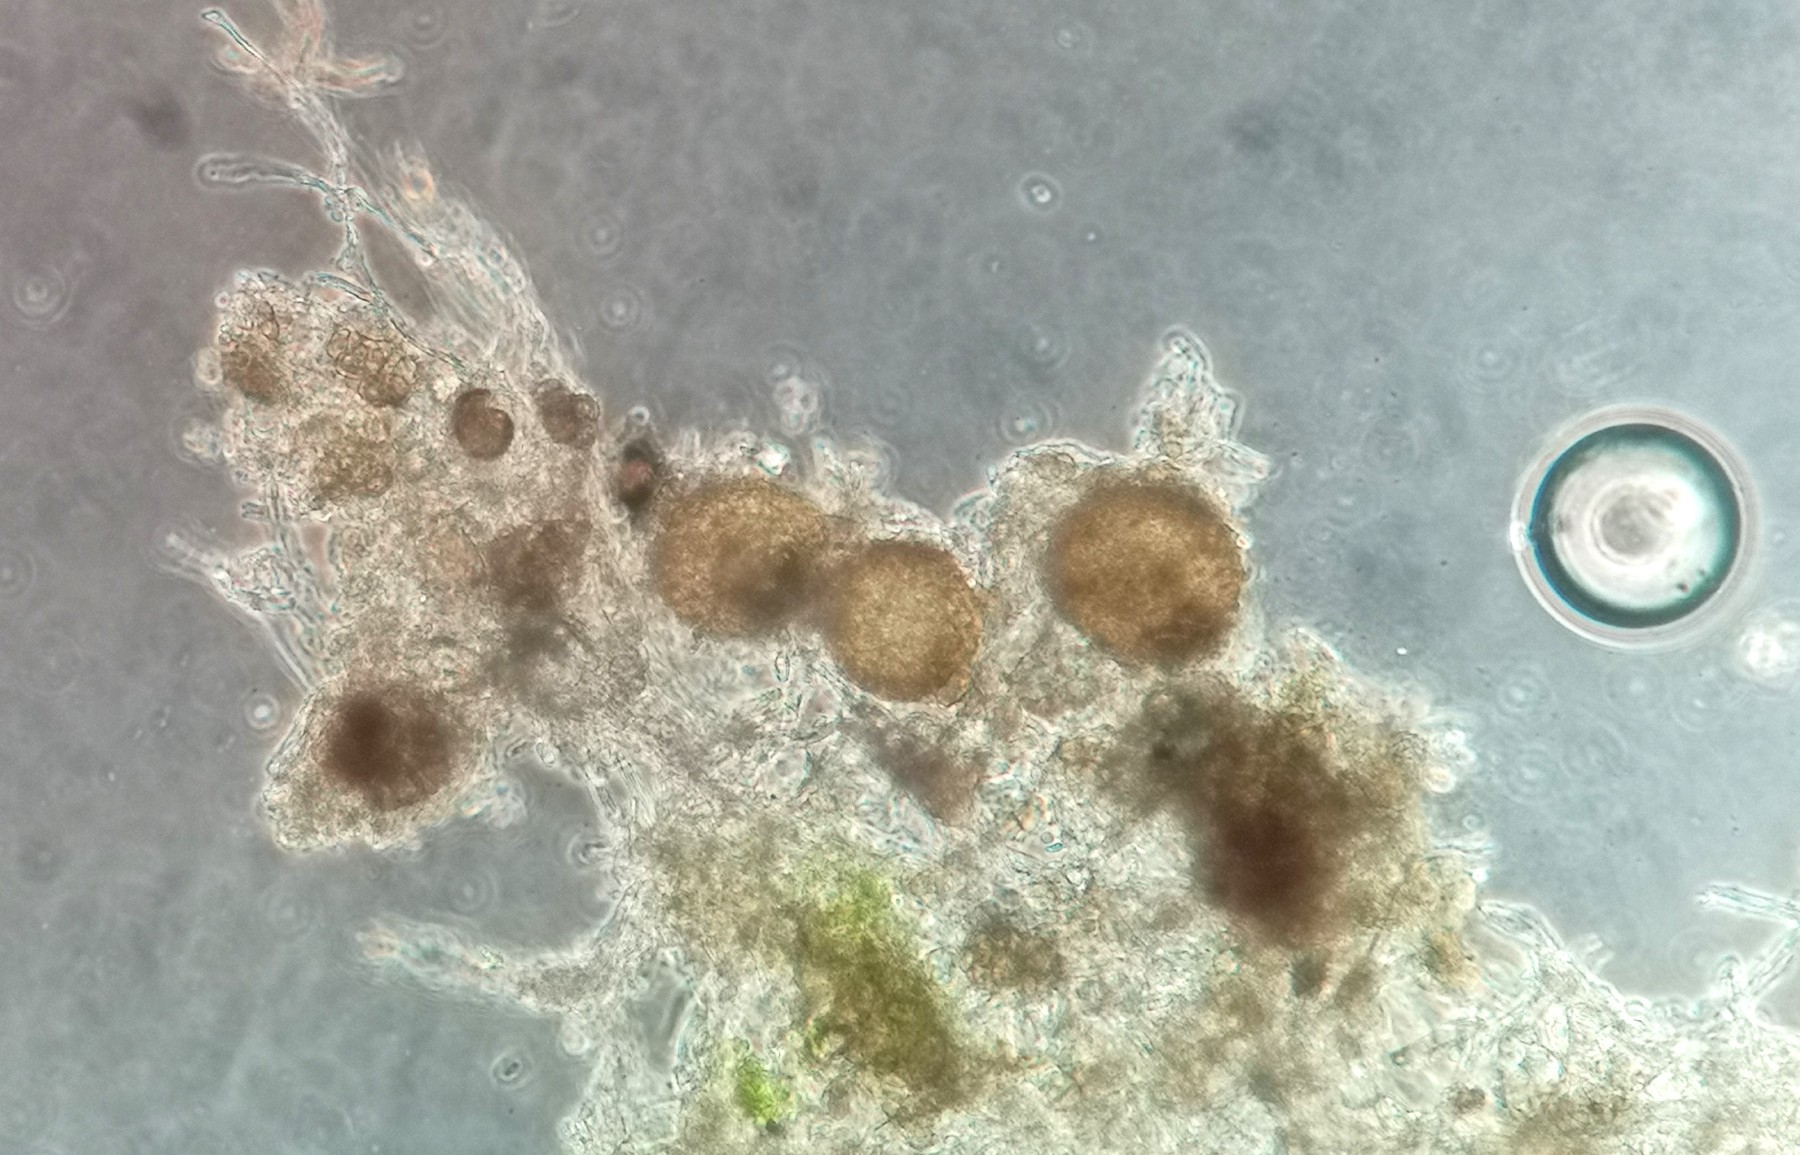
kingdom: Fungi
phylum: Ascomycota
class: Leotiomycetes
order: Helotiales
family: Erysiphaceae
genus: Erysiphe
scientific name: Erysiphe polygoni
